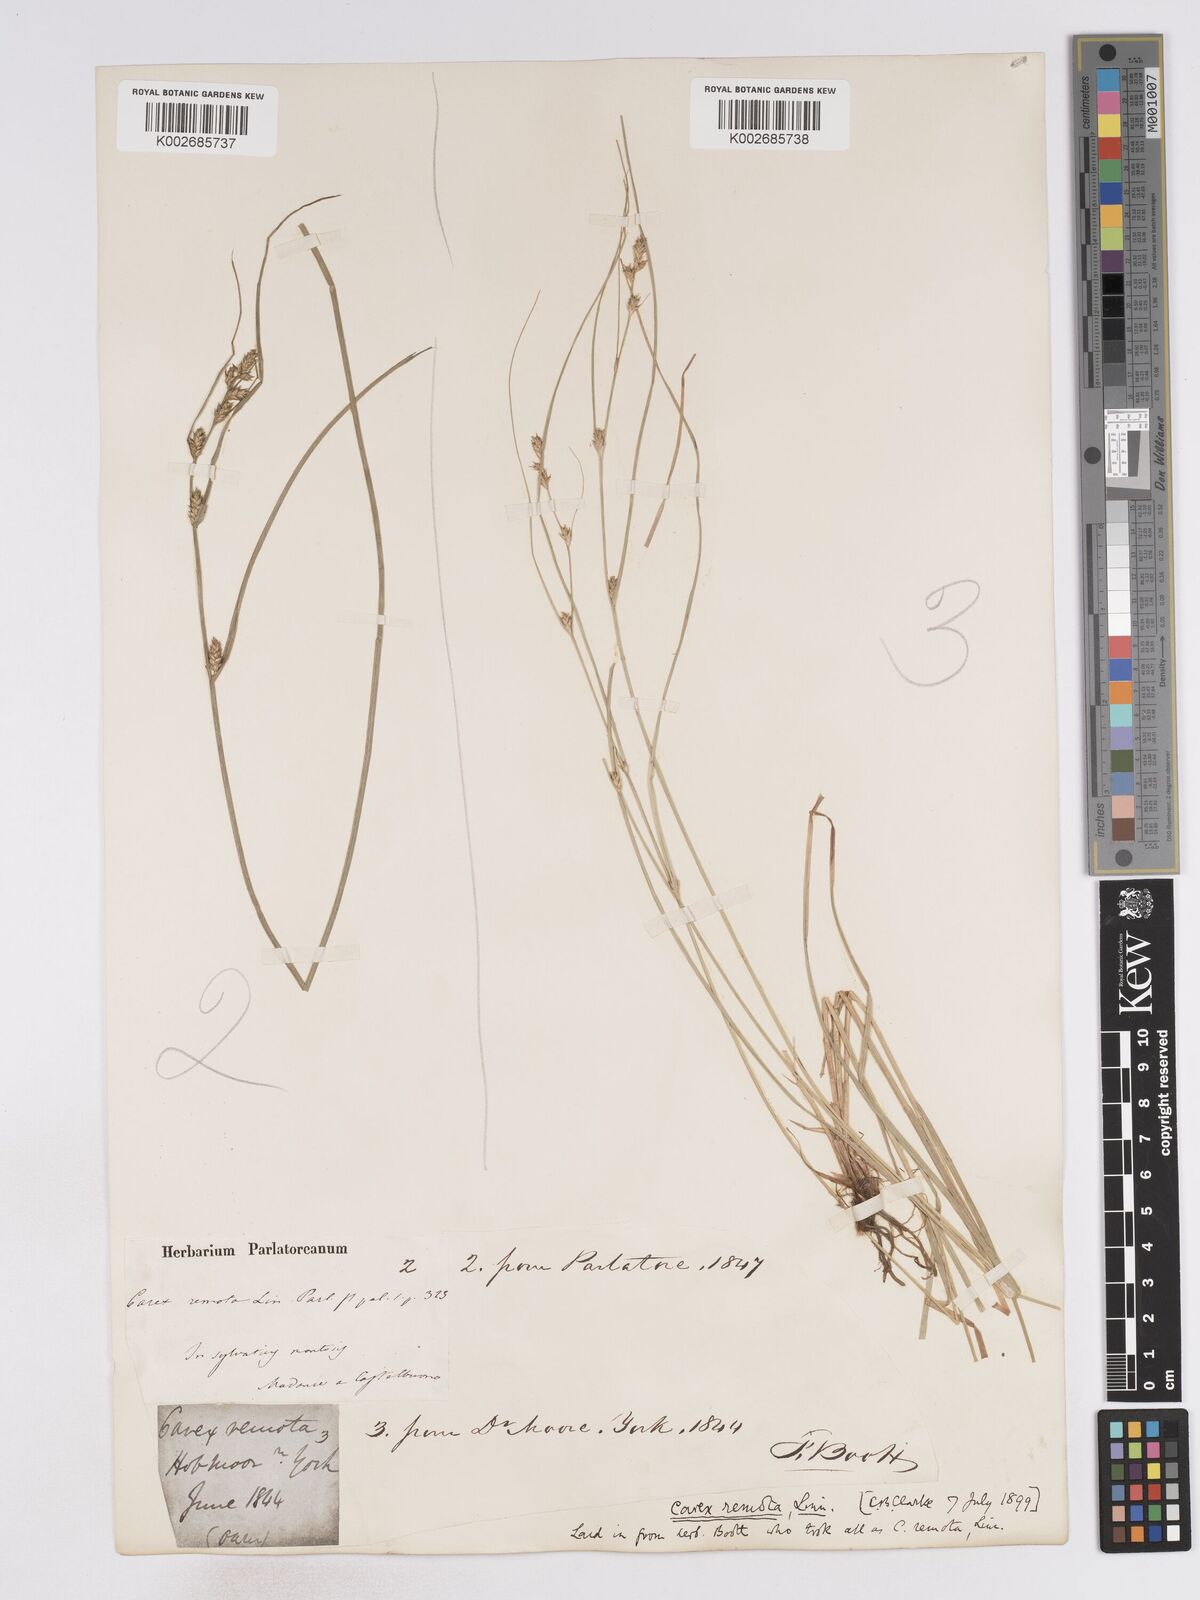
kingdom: Plantae
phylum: Tracheophyta
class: Liliopsida
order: Poales
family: Cyperaceae
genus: Carex
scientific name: Carex remota
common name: Remote sedge
